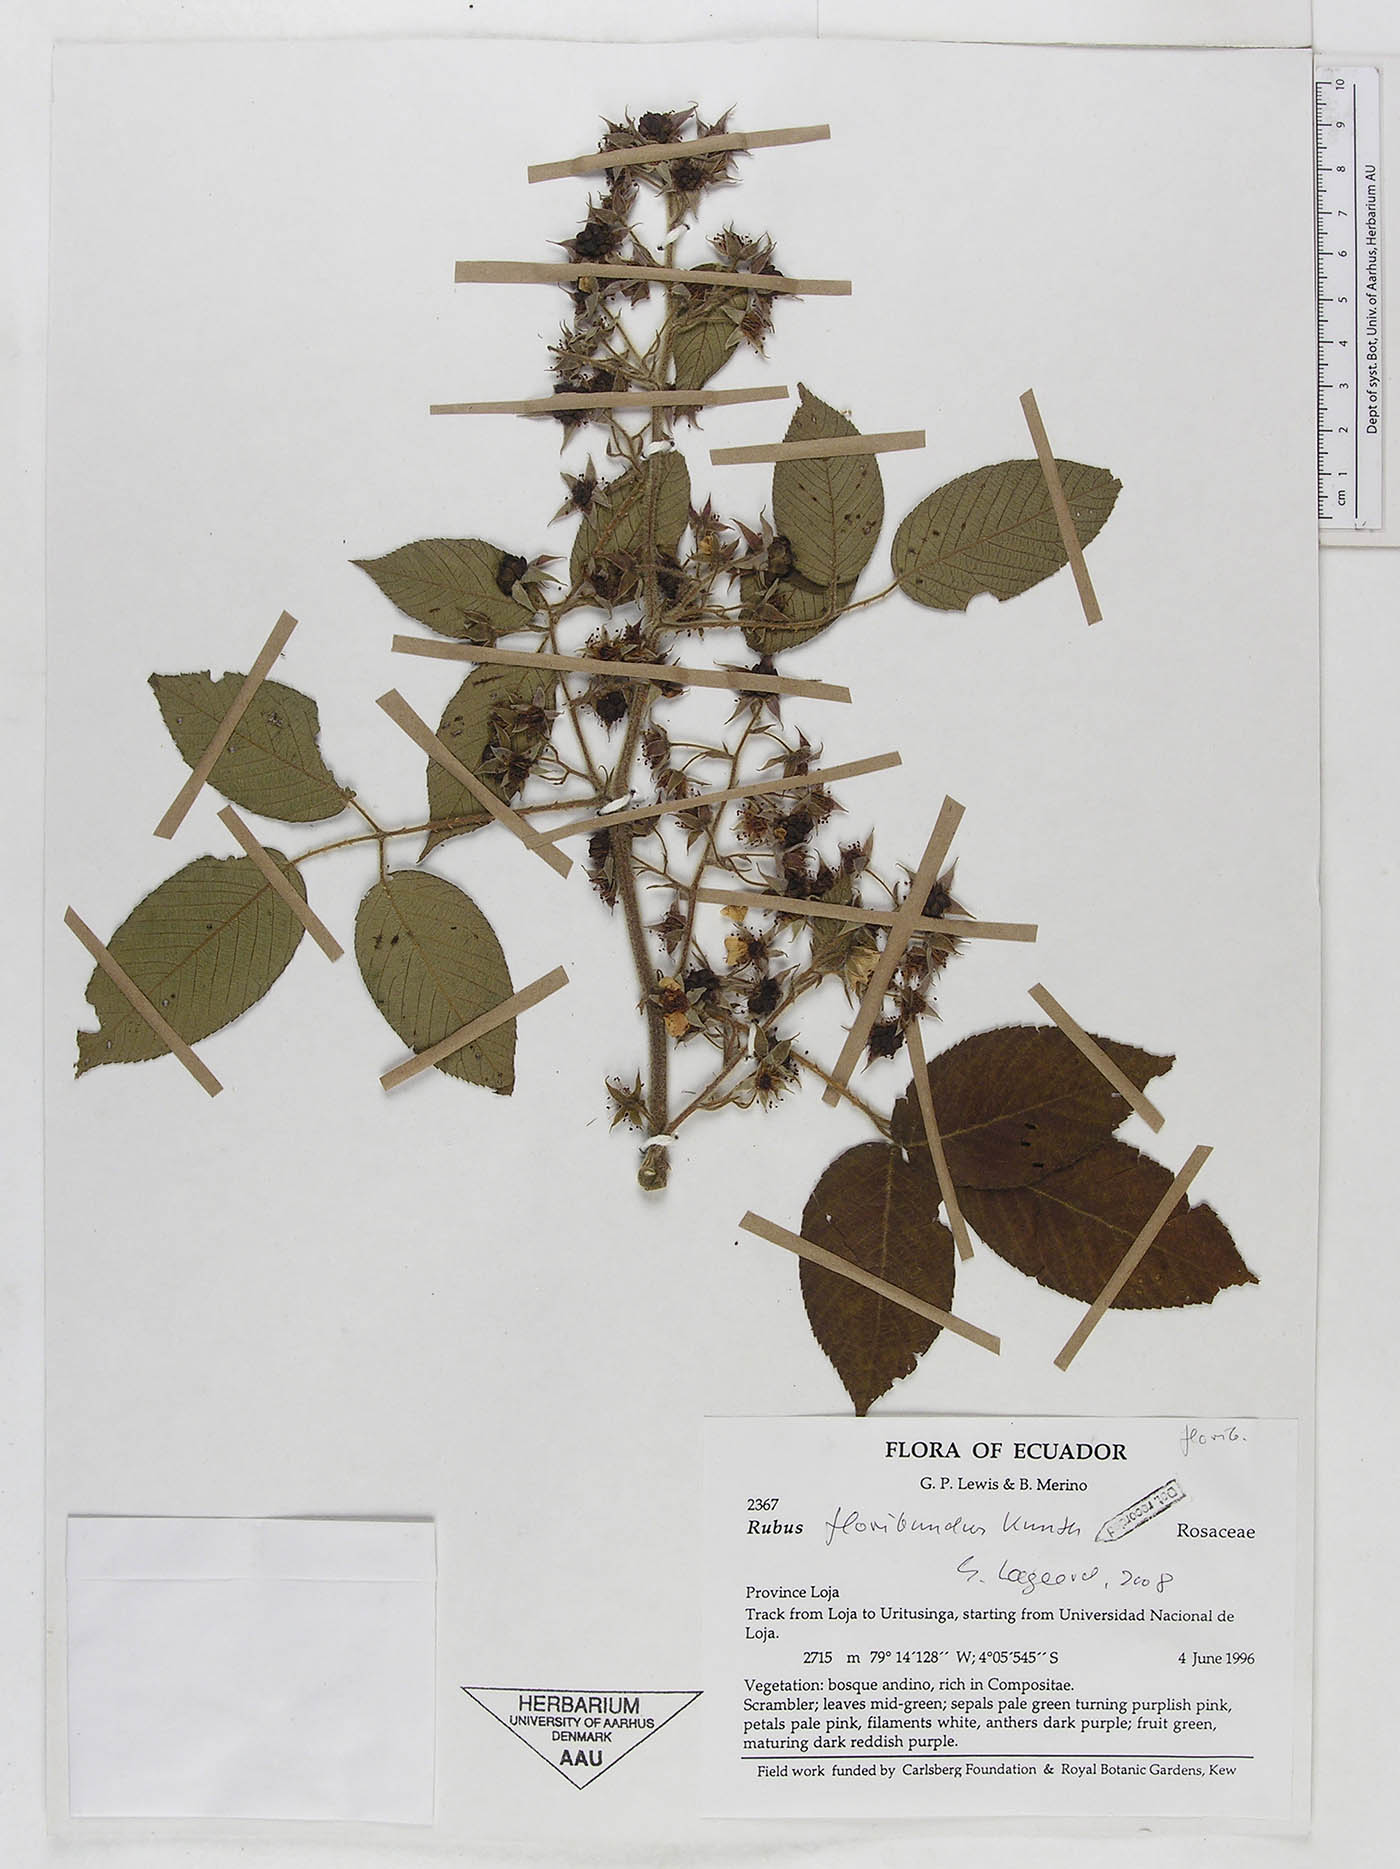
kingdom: Plantae
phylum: Tracheophyta
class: Magnoliopsida
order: Rosales
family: Rosaceae
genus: Rubus
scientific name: Rubus floribundus
